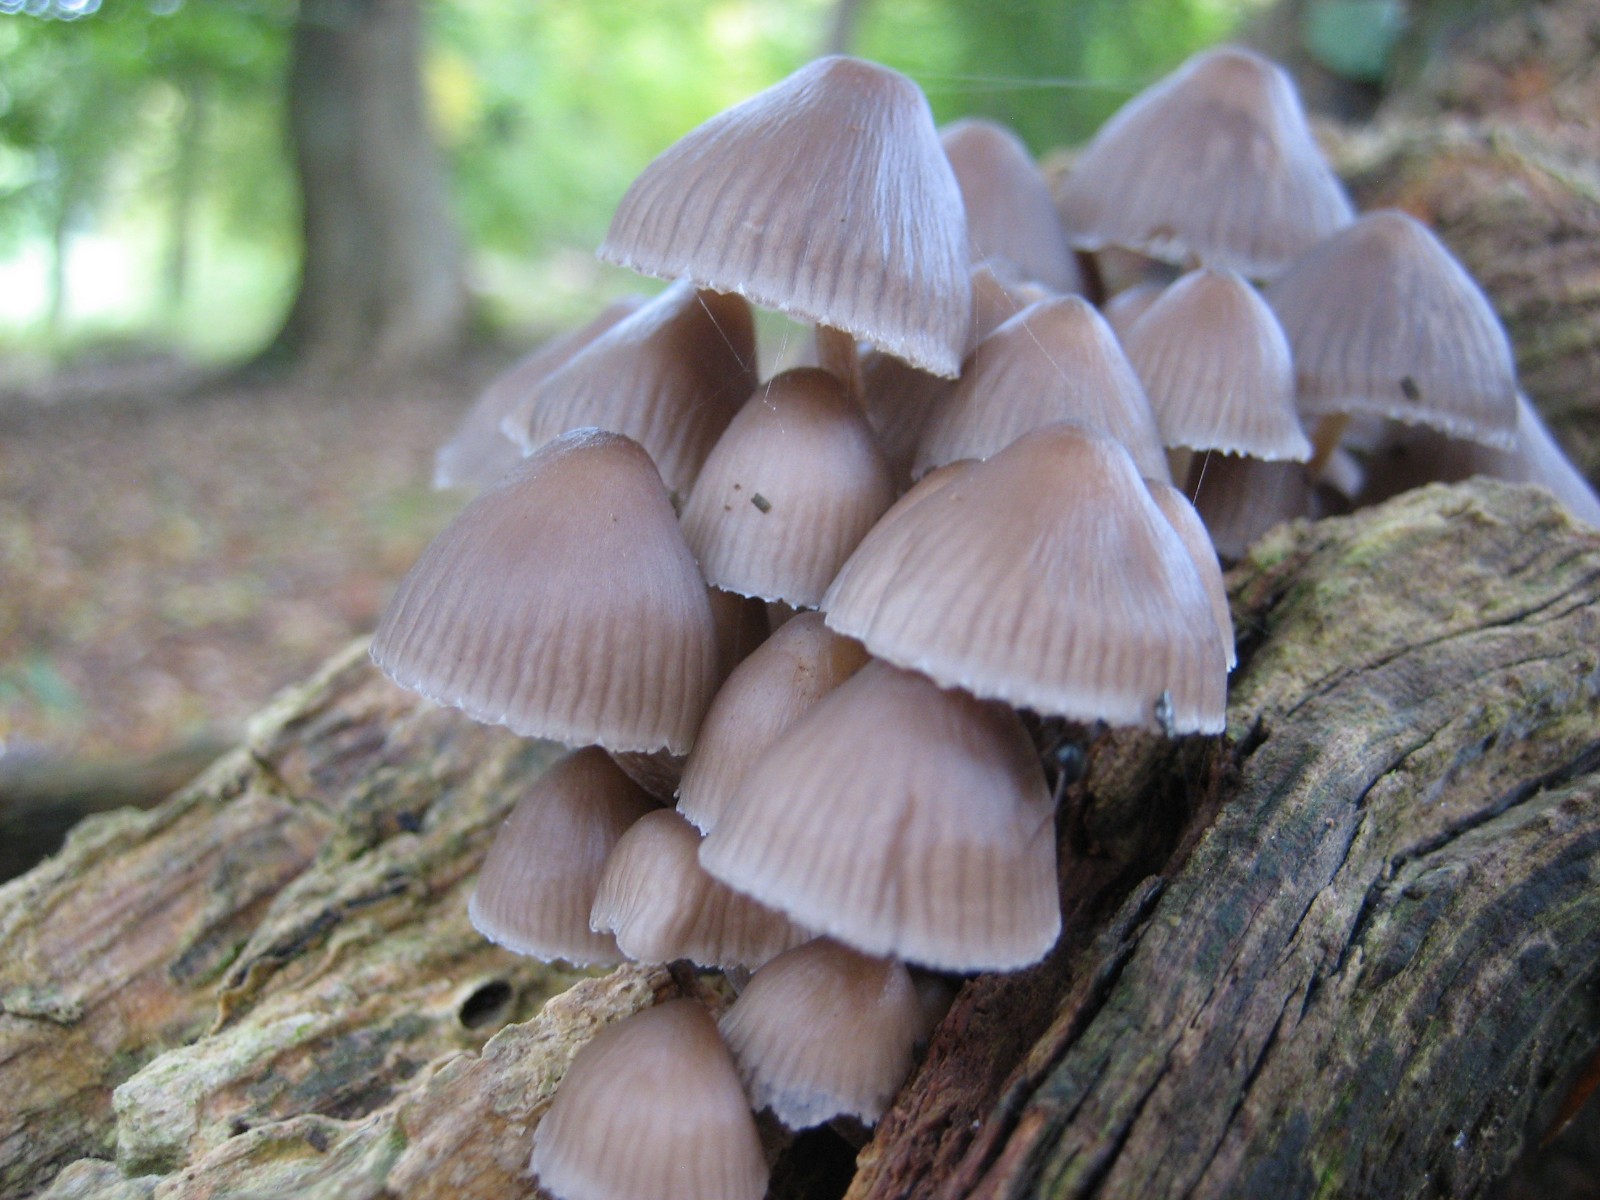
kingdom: Fungi
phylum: Basidiomycota
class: Agaricomycetes
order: Agaricales
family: Mycenaceae
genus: Mycena
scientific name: Mycena galericulata
